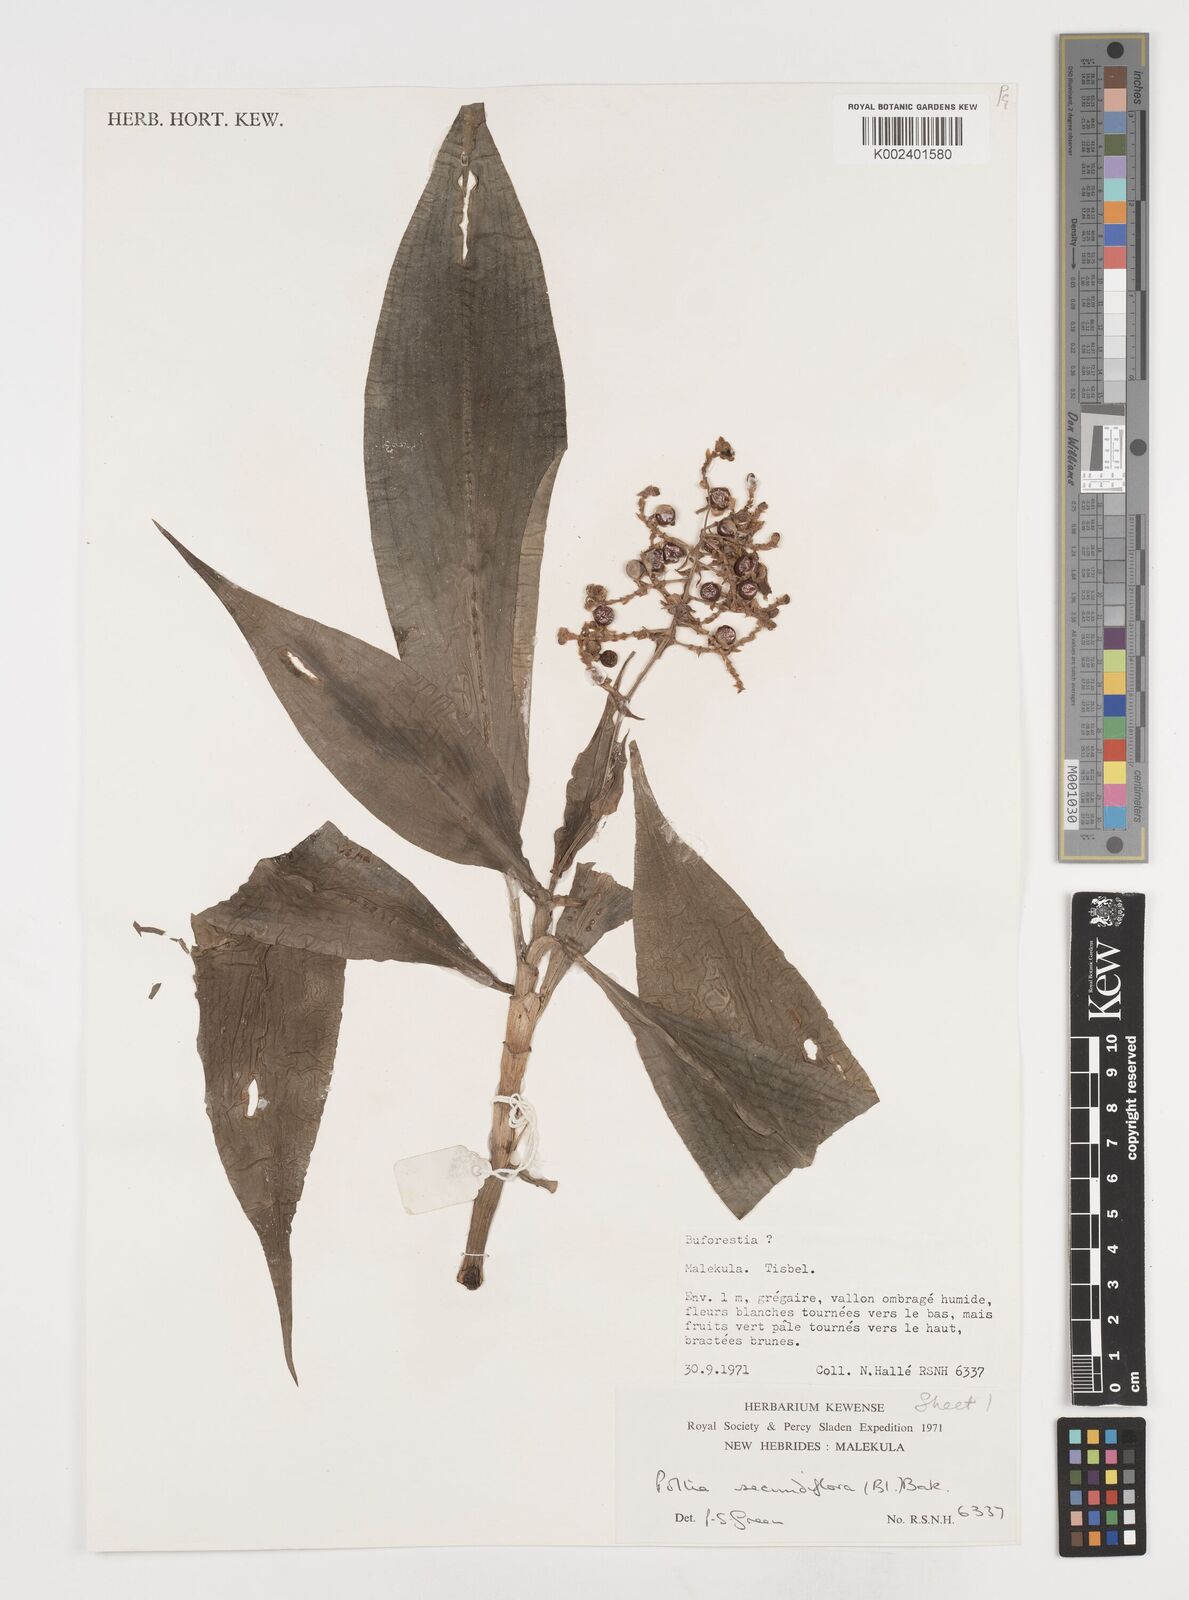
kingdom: Plantae
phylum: Tracheophyta
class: Liliopsida
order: Commelinales
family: Commelinaceae
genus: Pollia
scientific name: Pollia secundiflora
